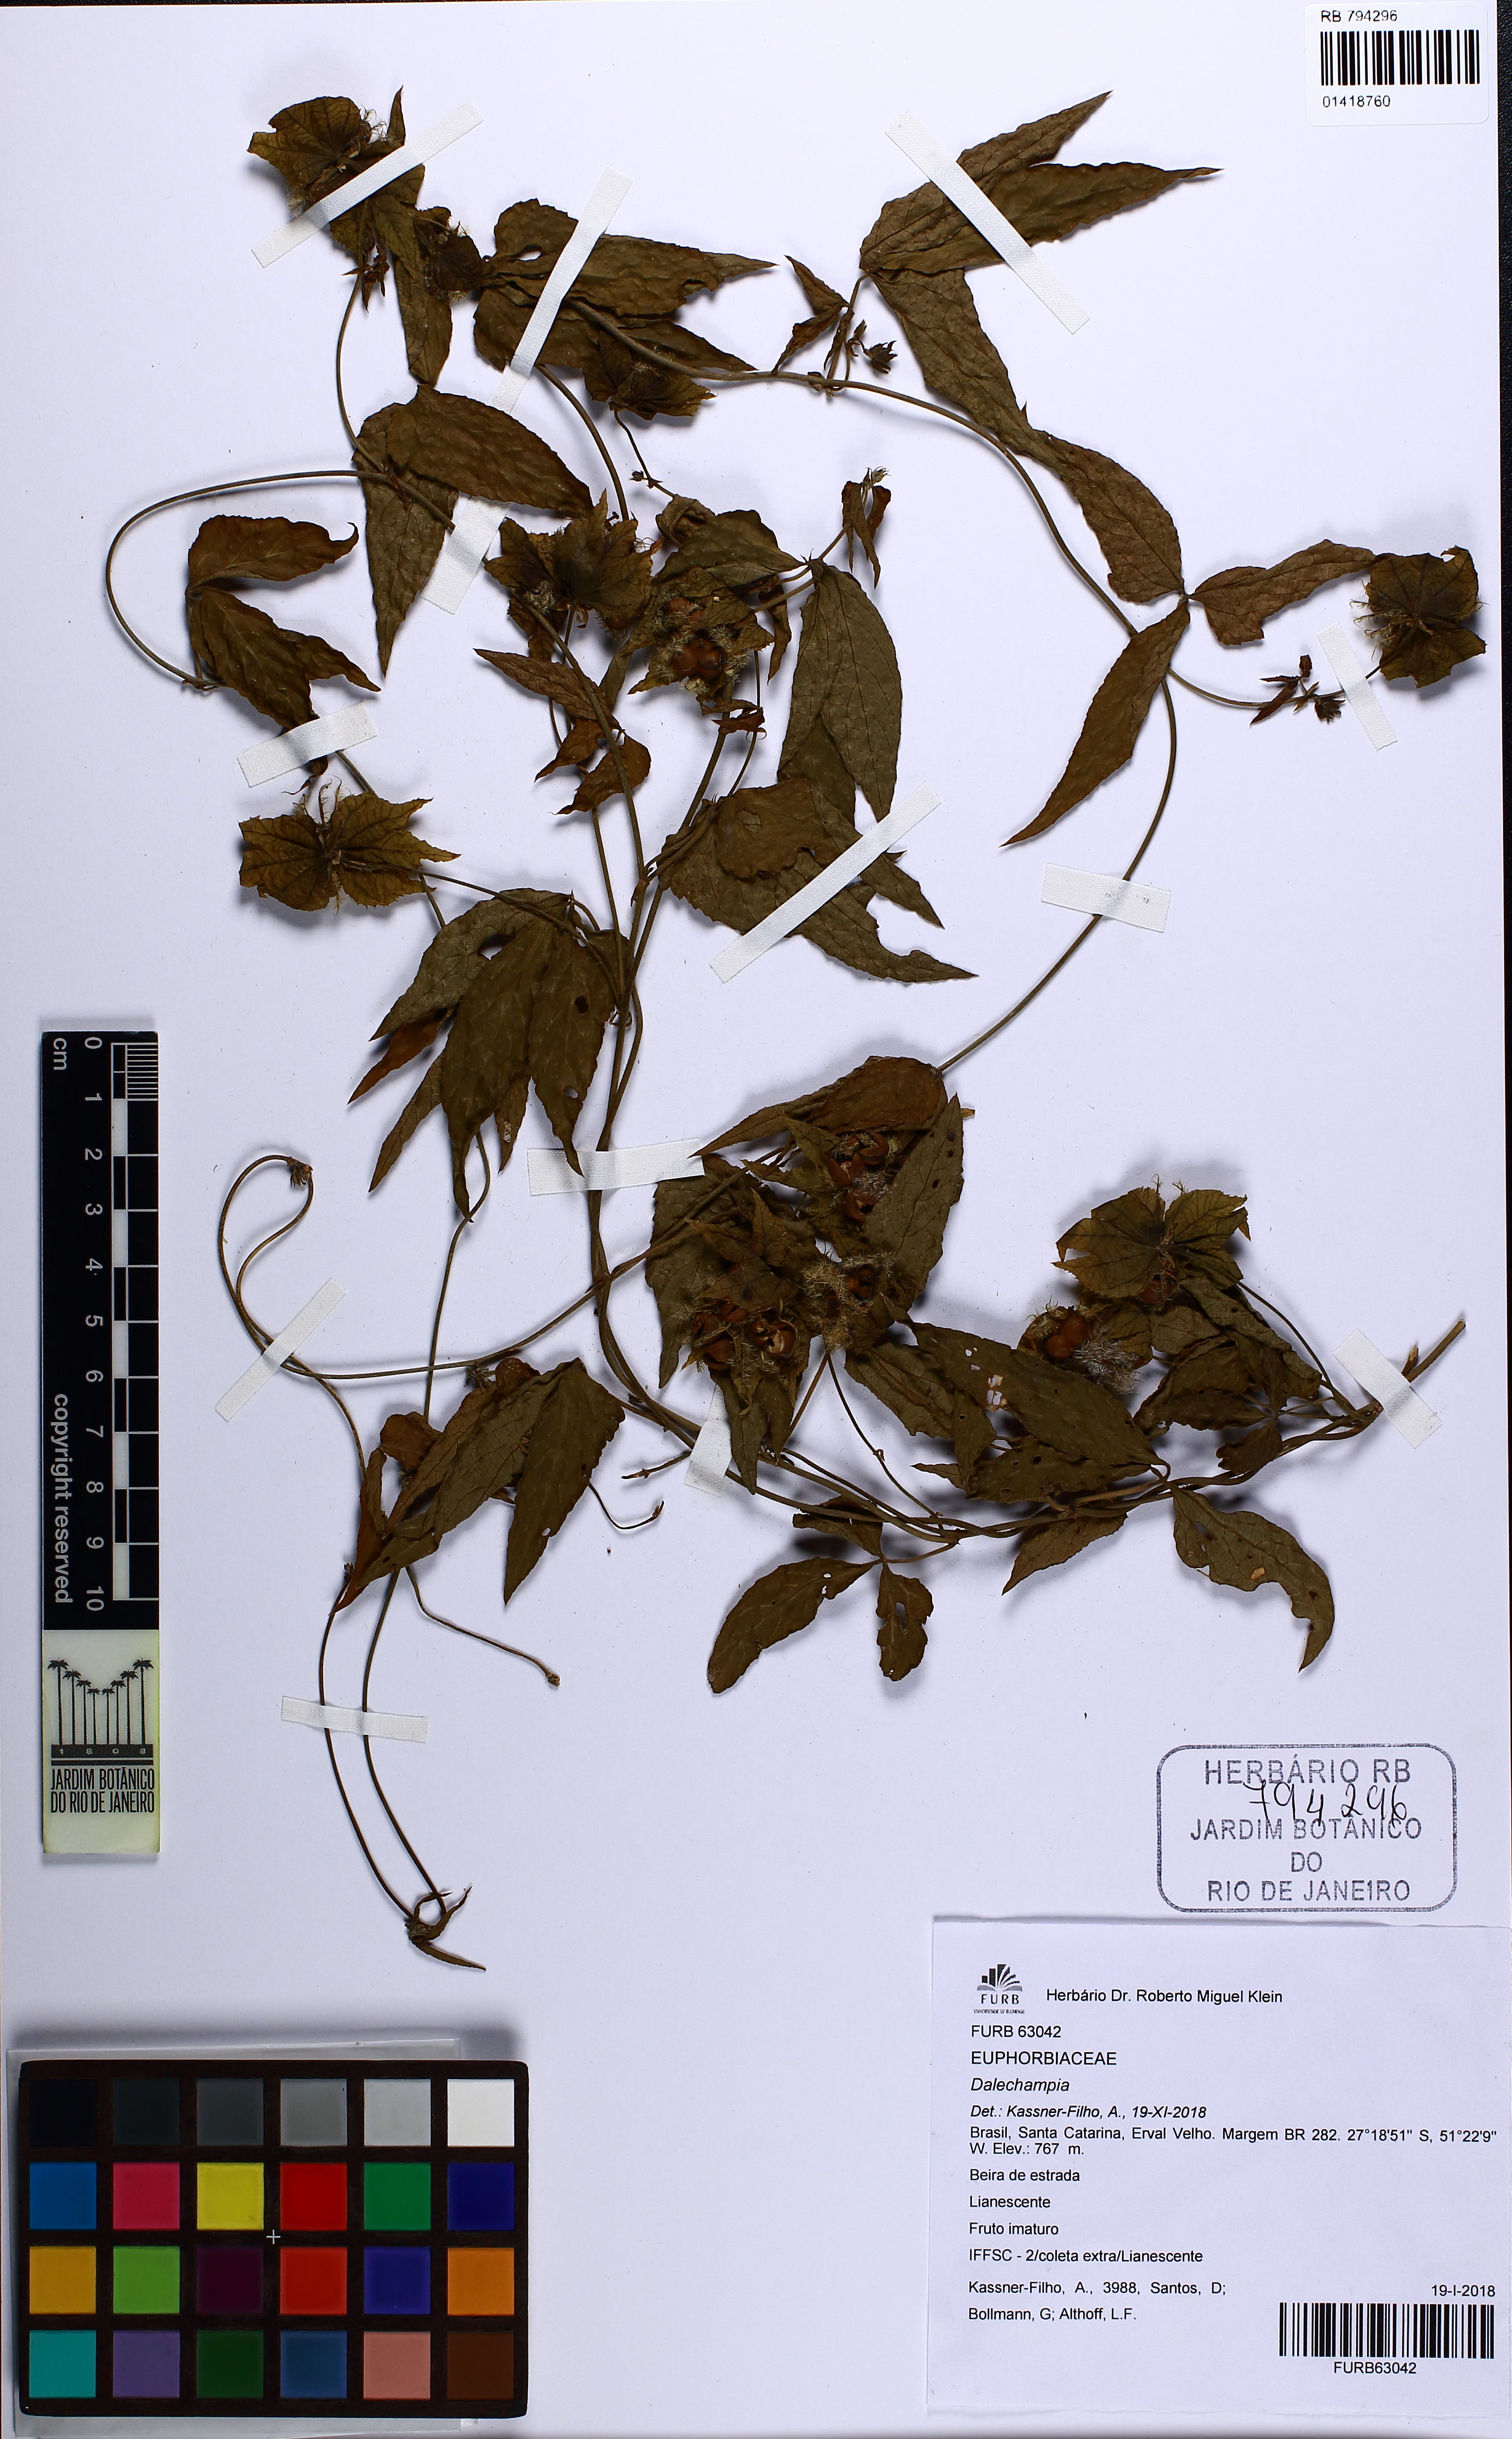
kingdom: Plantae
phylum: Tracheophyta
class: Magnoliopsida
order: Malpighiales
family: Euphorbiaceae
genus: Dalechampia
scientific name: Dalechampia triphylla
